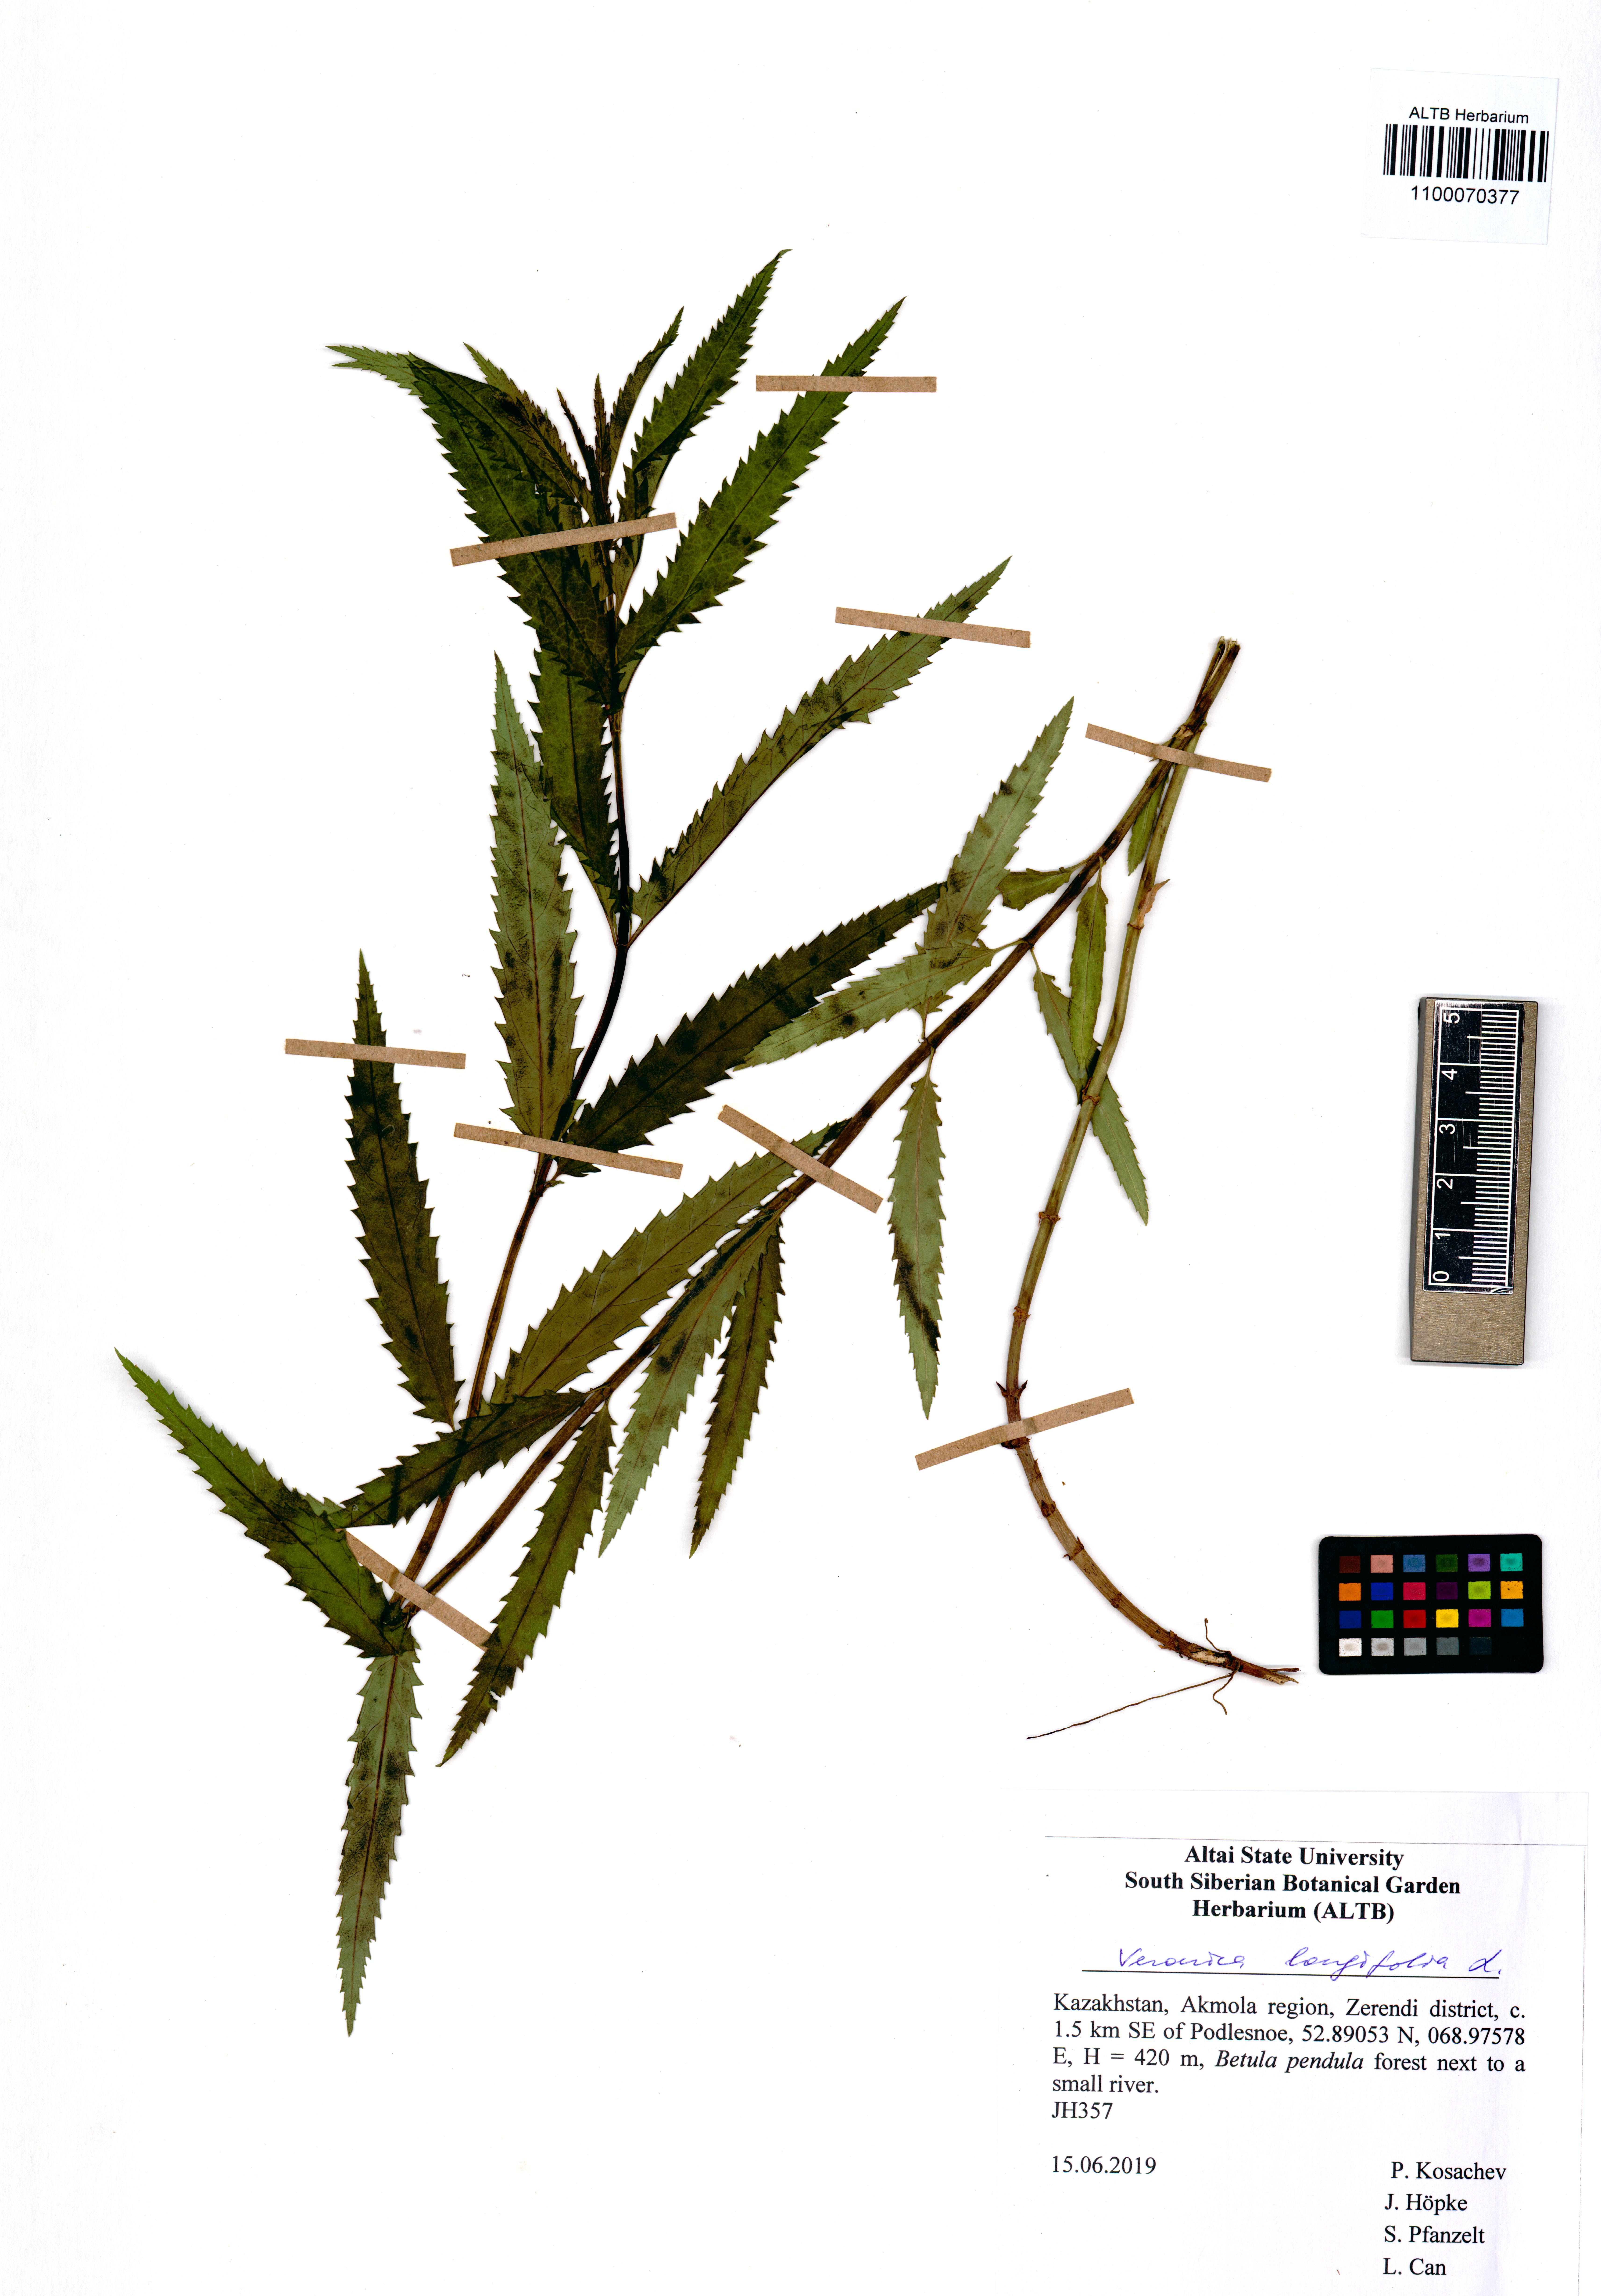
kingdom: Plantae
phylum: Tracheophyta
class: Magnoliopsida
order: Lamiales
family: Plantaginaceae
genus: Veronica
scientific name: Veronica longifolia
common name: Garden speedwell
